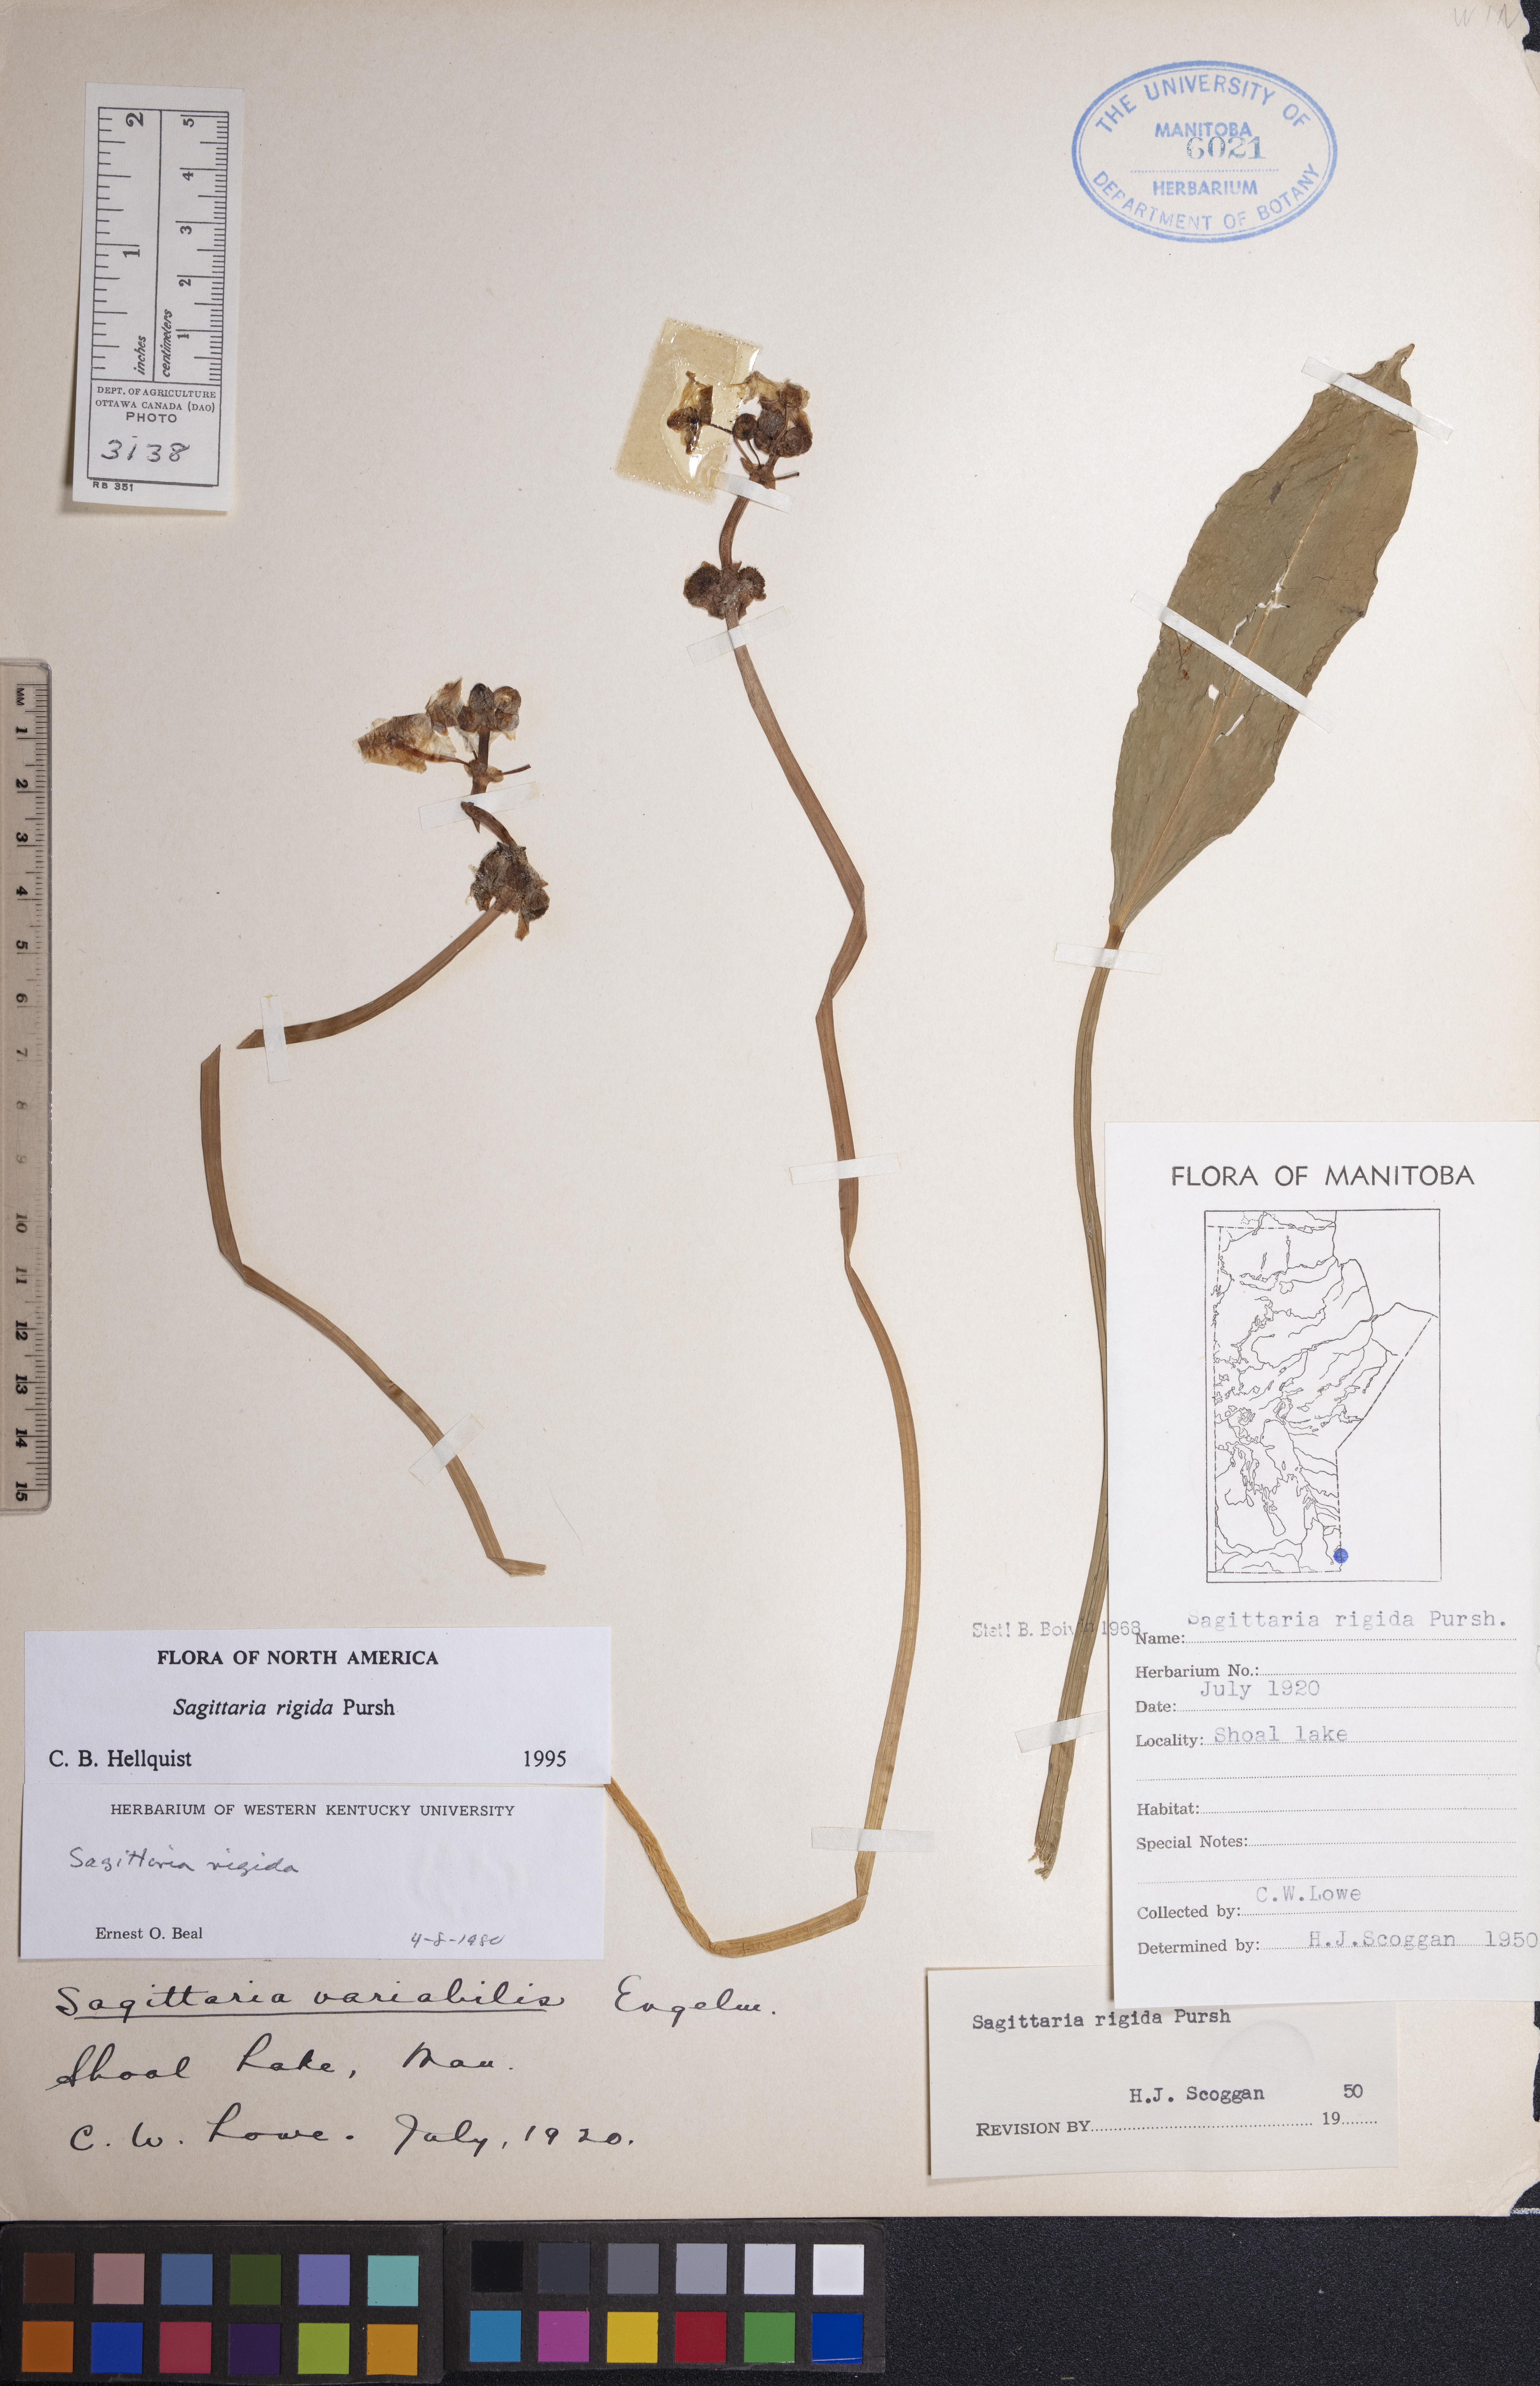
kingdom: Plantae
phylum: Tracheophyta
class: Liliopsida
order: Alismatales
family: Alismataceae
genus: Sagittaria
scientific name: Sagittaria rigida
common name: Canadian arrowhead
